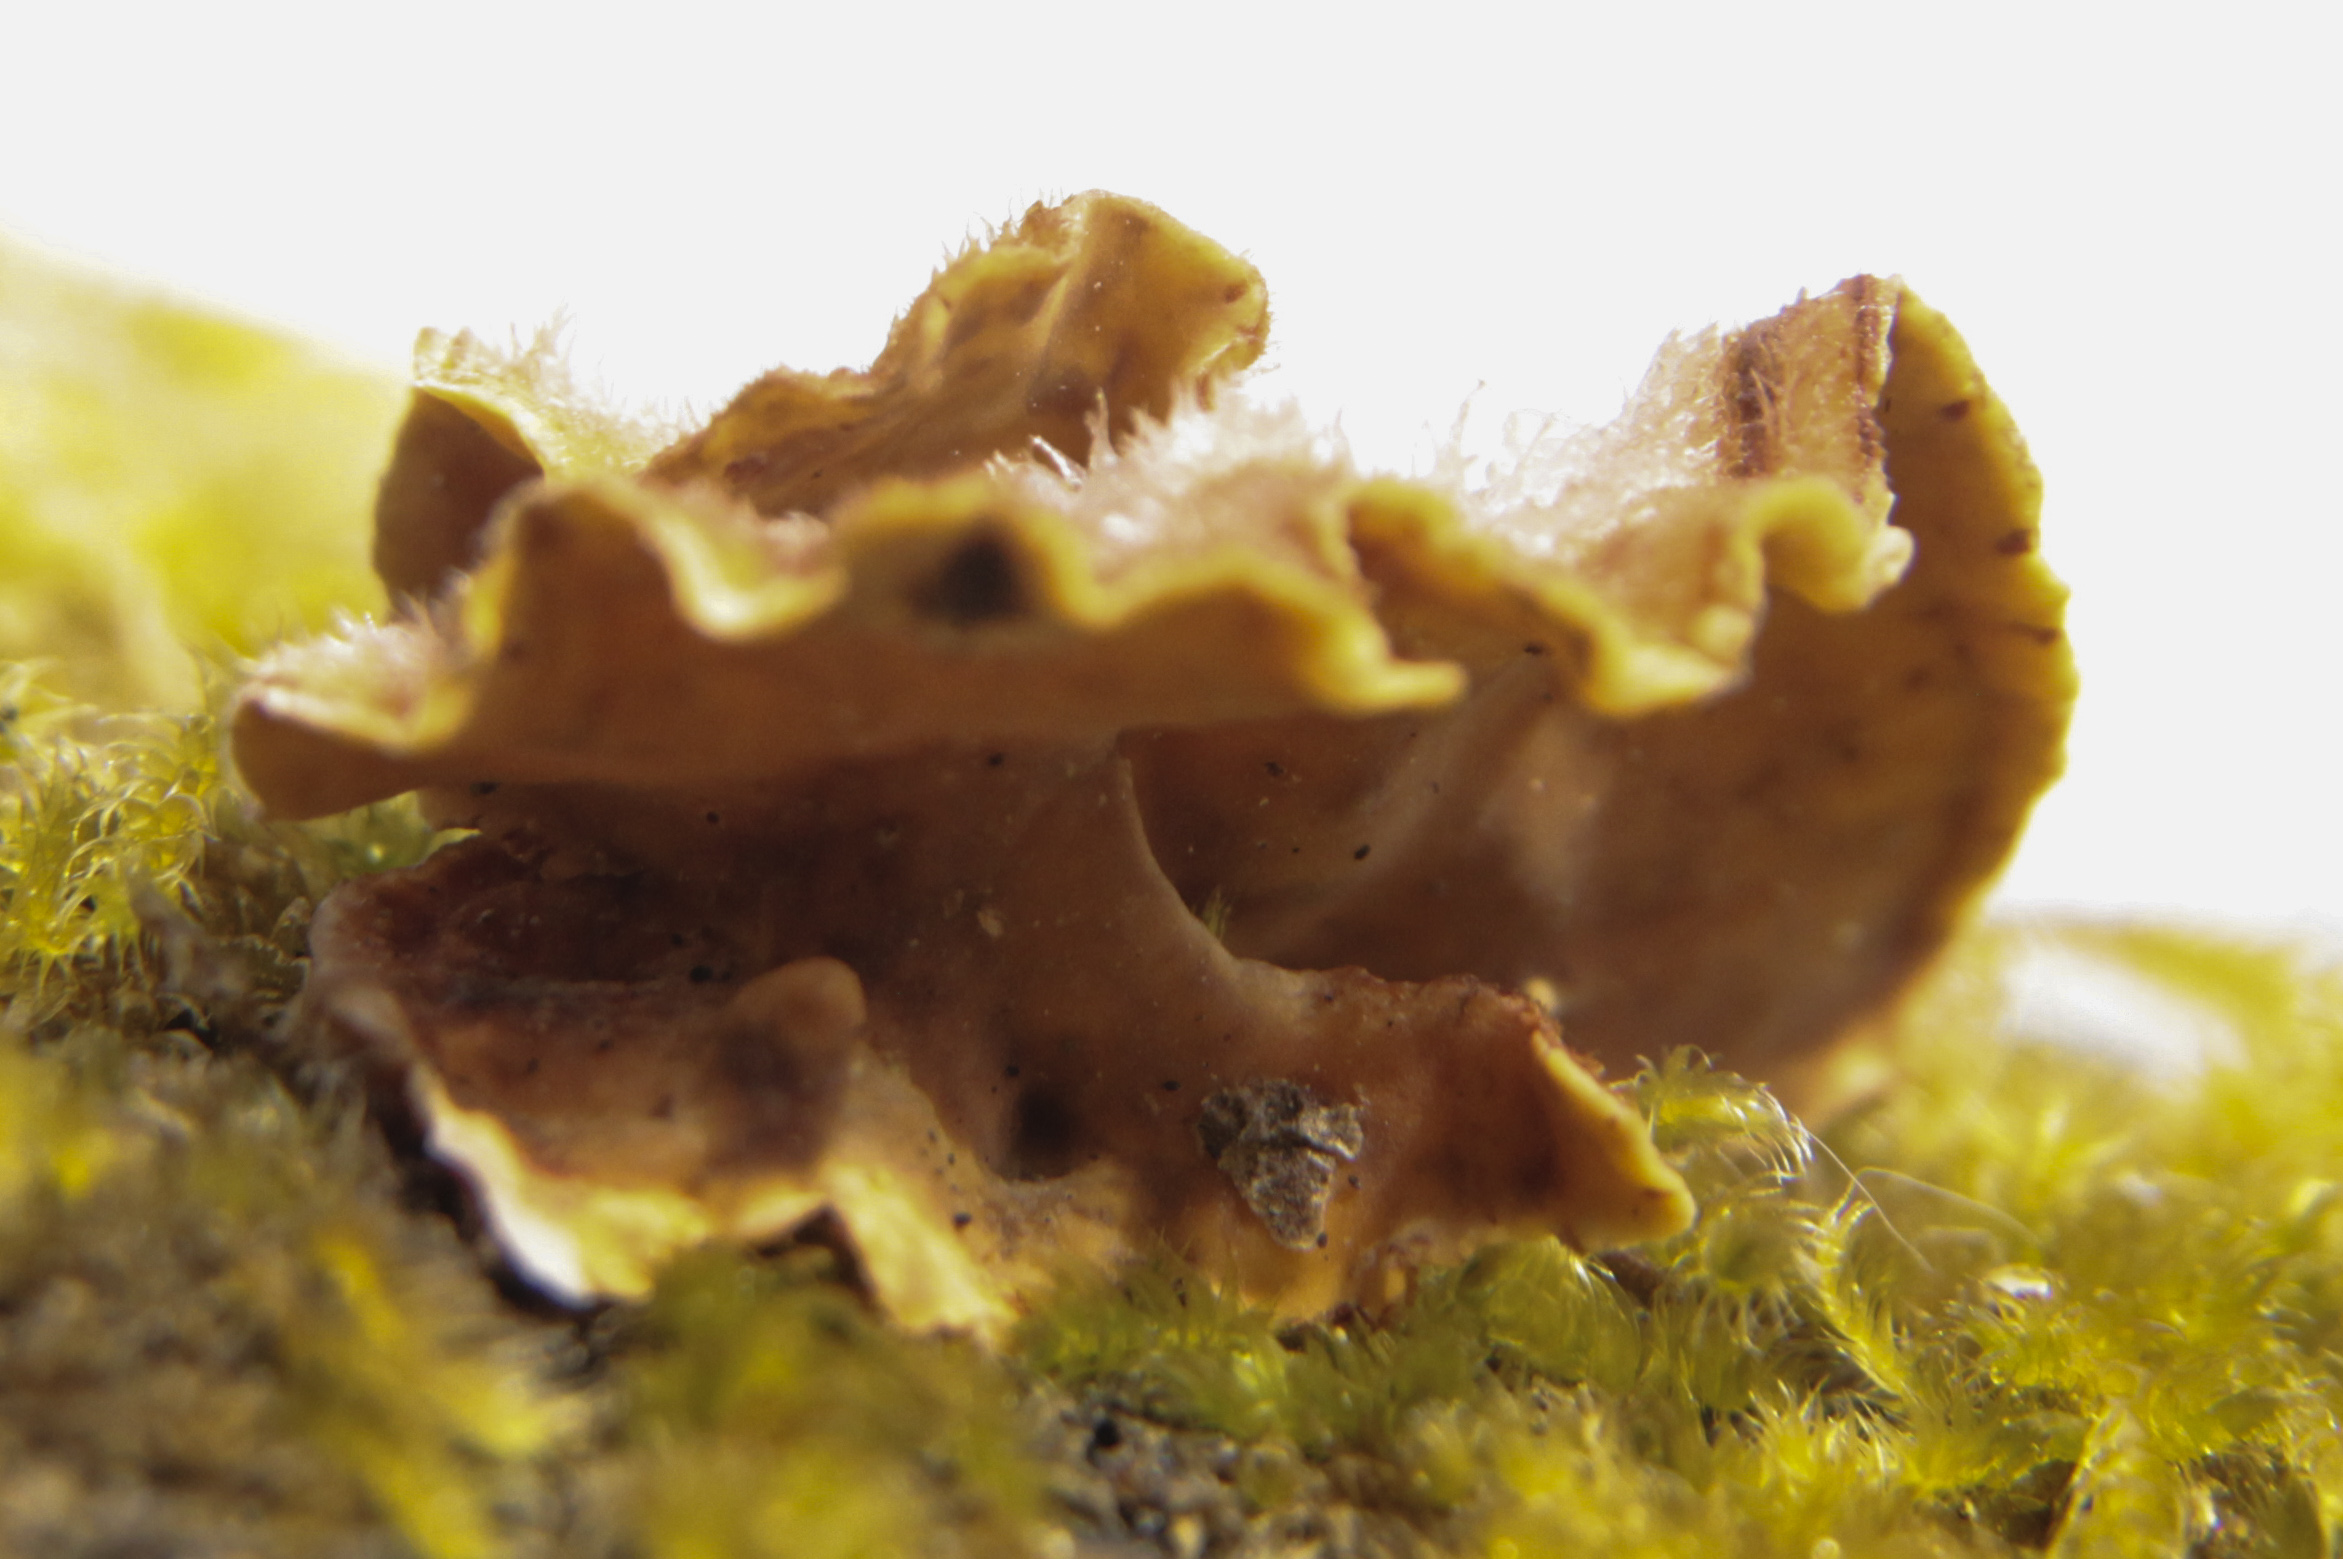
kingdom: Fungi
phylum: Basidiomycota
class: Agaricomycetes
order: Russulales
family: Stereaceae
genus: Stereum
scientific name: Stereum hirsutum
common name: Hairy curtain crust
